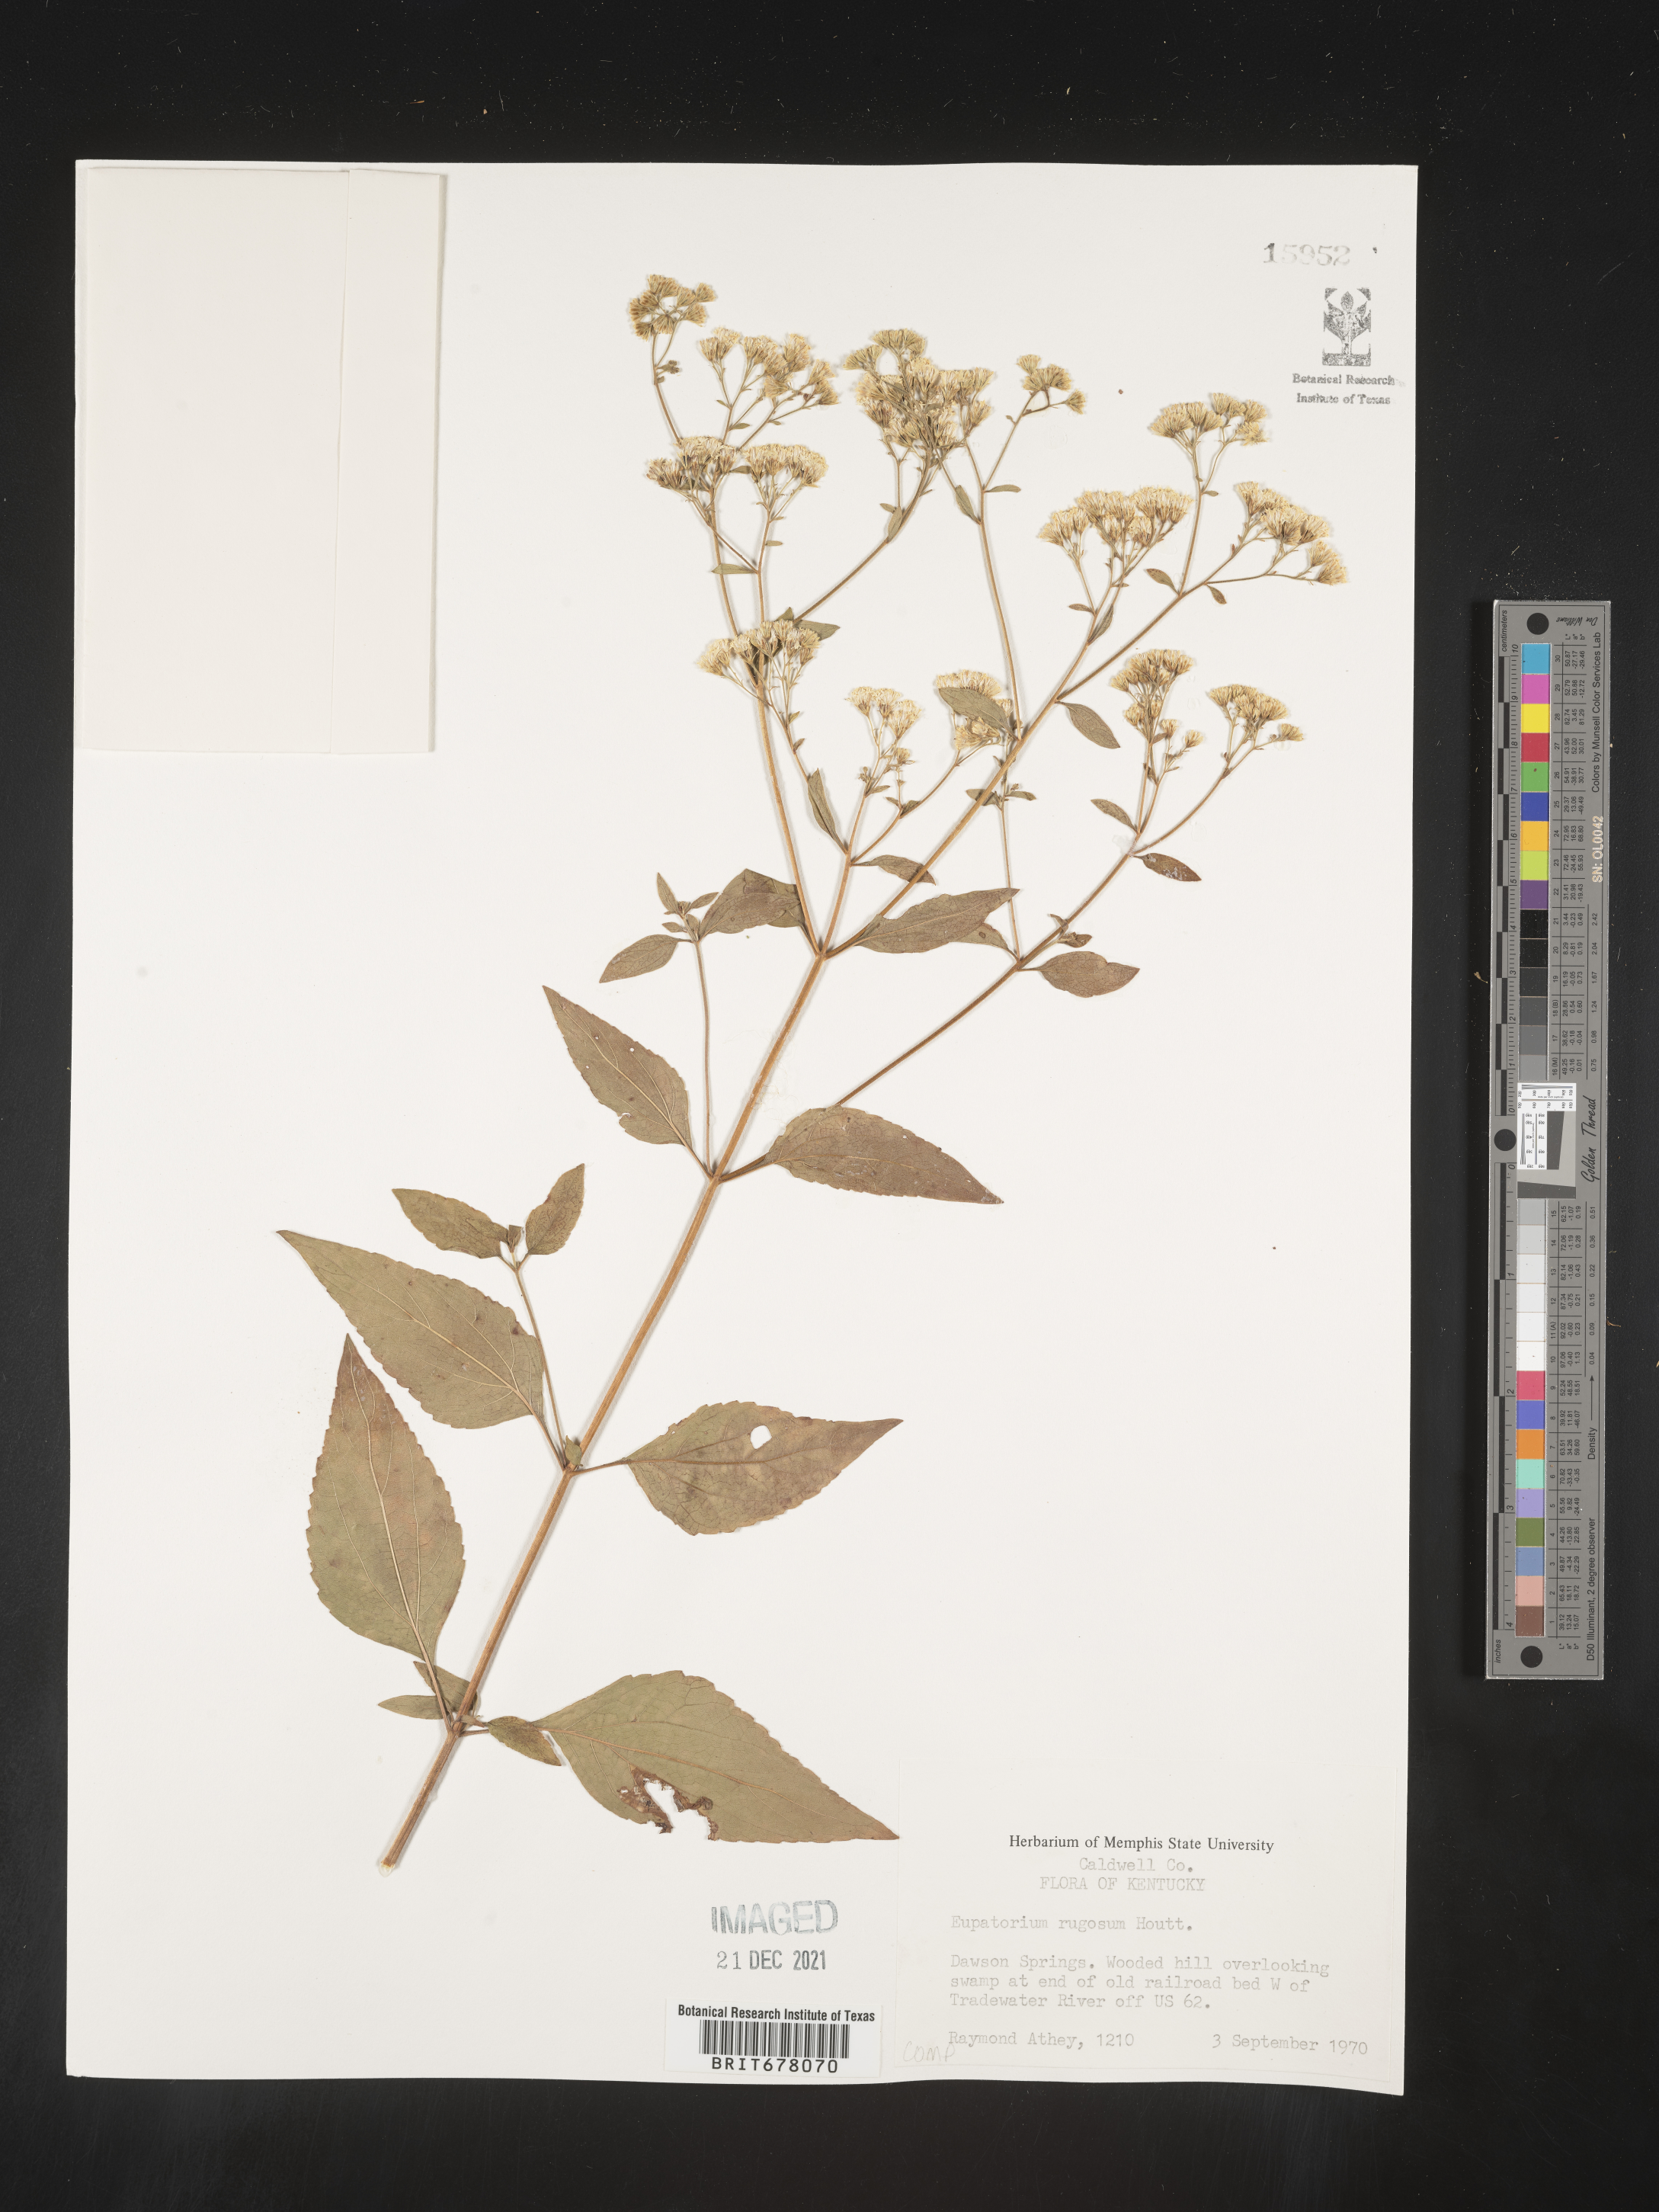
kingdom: Plantae
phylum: Tracheophyta
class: Magnoliopsida
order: Asterales
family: Asteraceae
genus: Eupatorium
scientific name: Eupatorium
